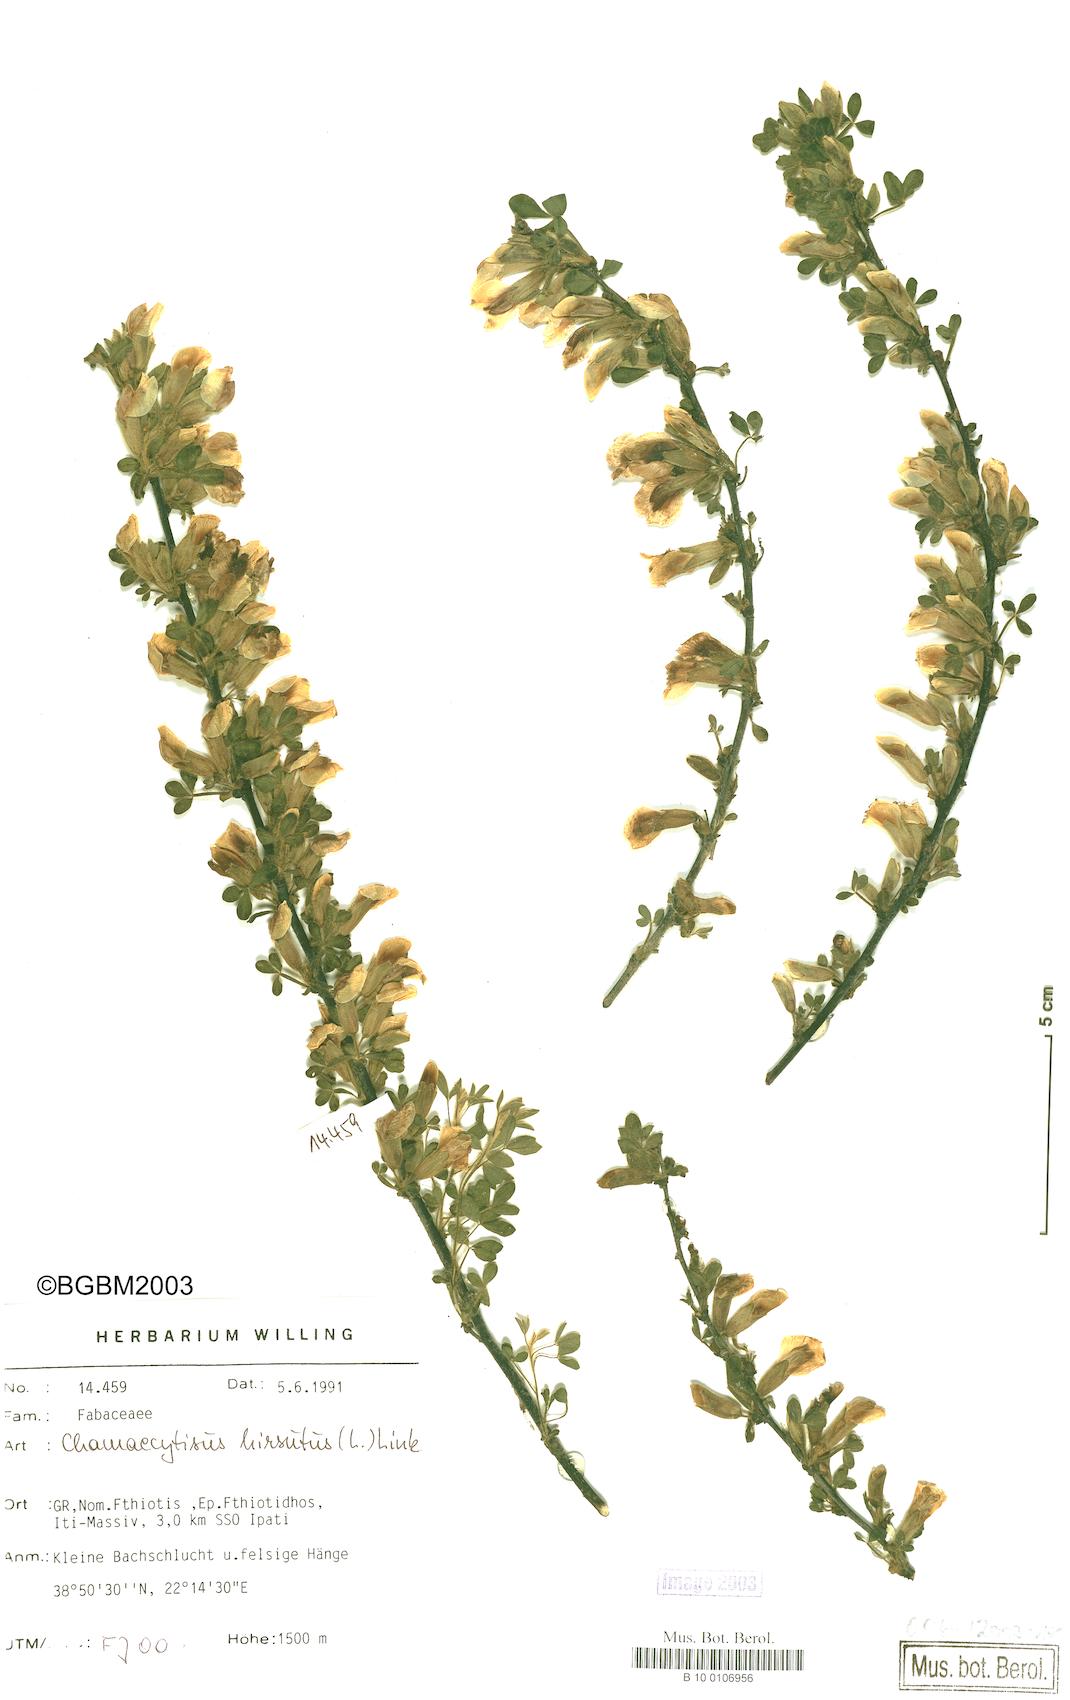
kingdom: Plantae
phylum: Tracheophyta
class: Magnoliopsida
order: Fabales
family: Fabaceae
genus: Chamaecytisus
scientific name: Chamaecytisus hirsutus
